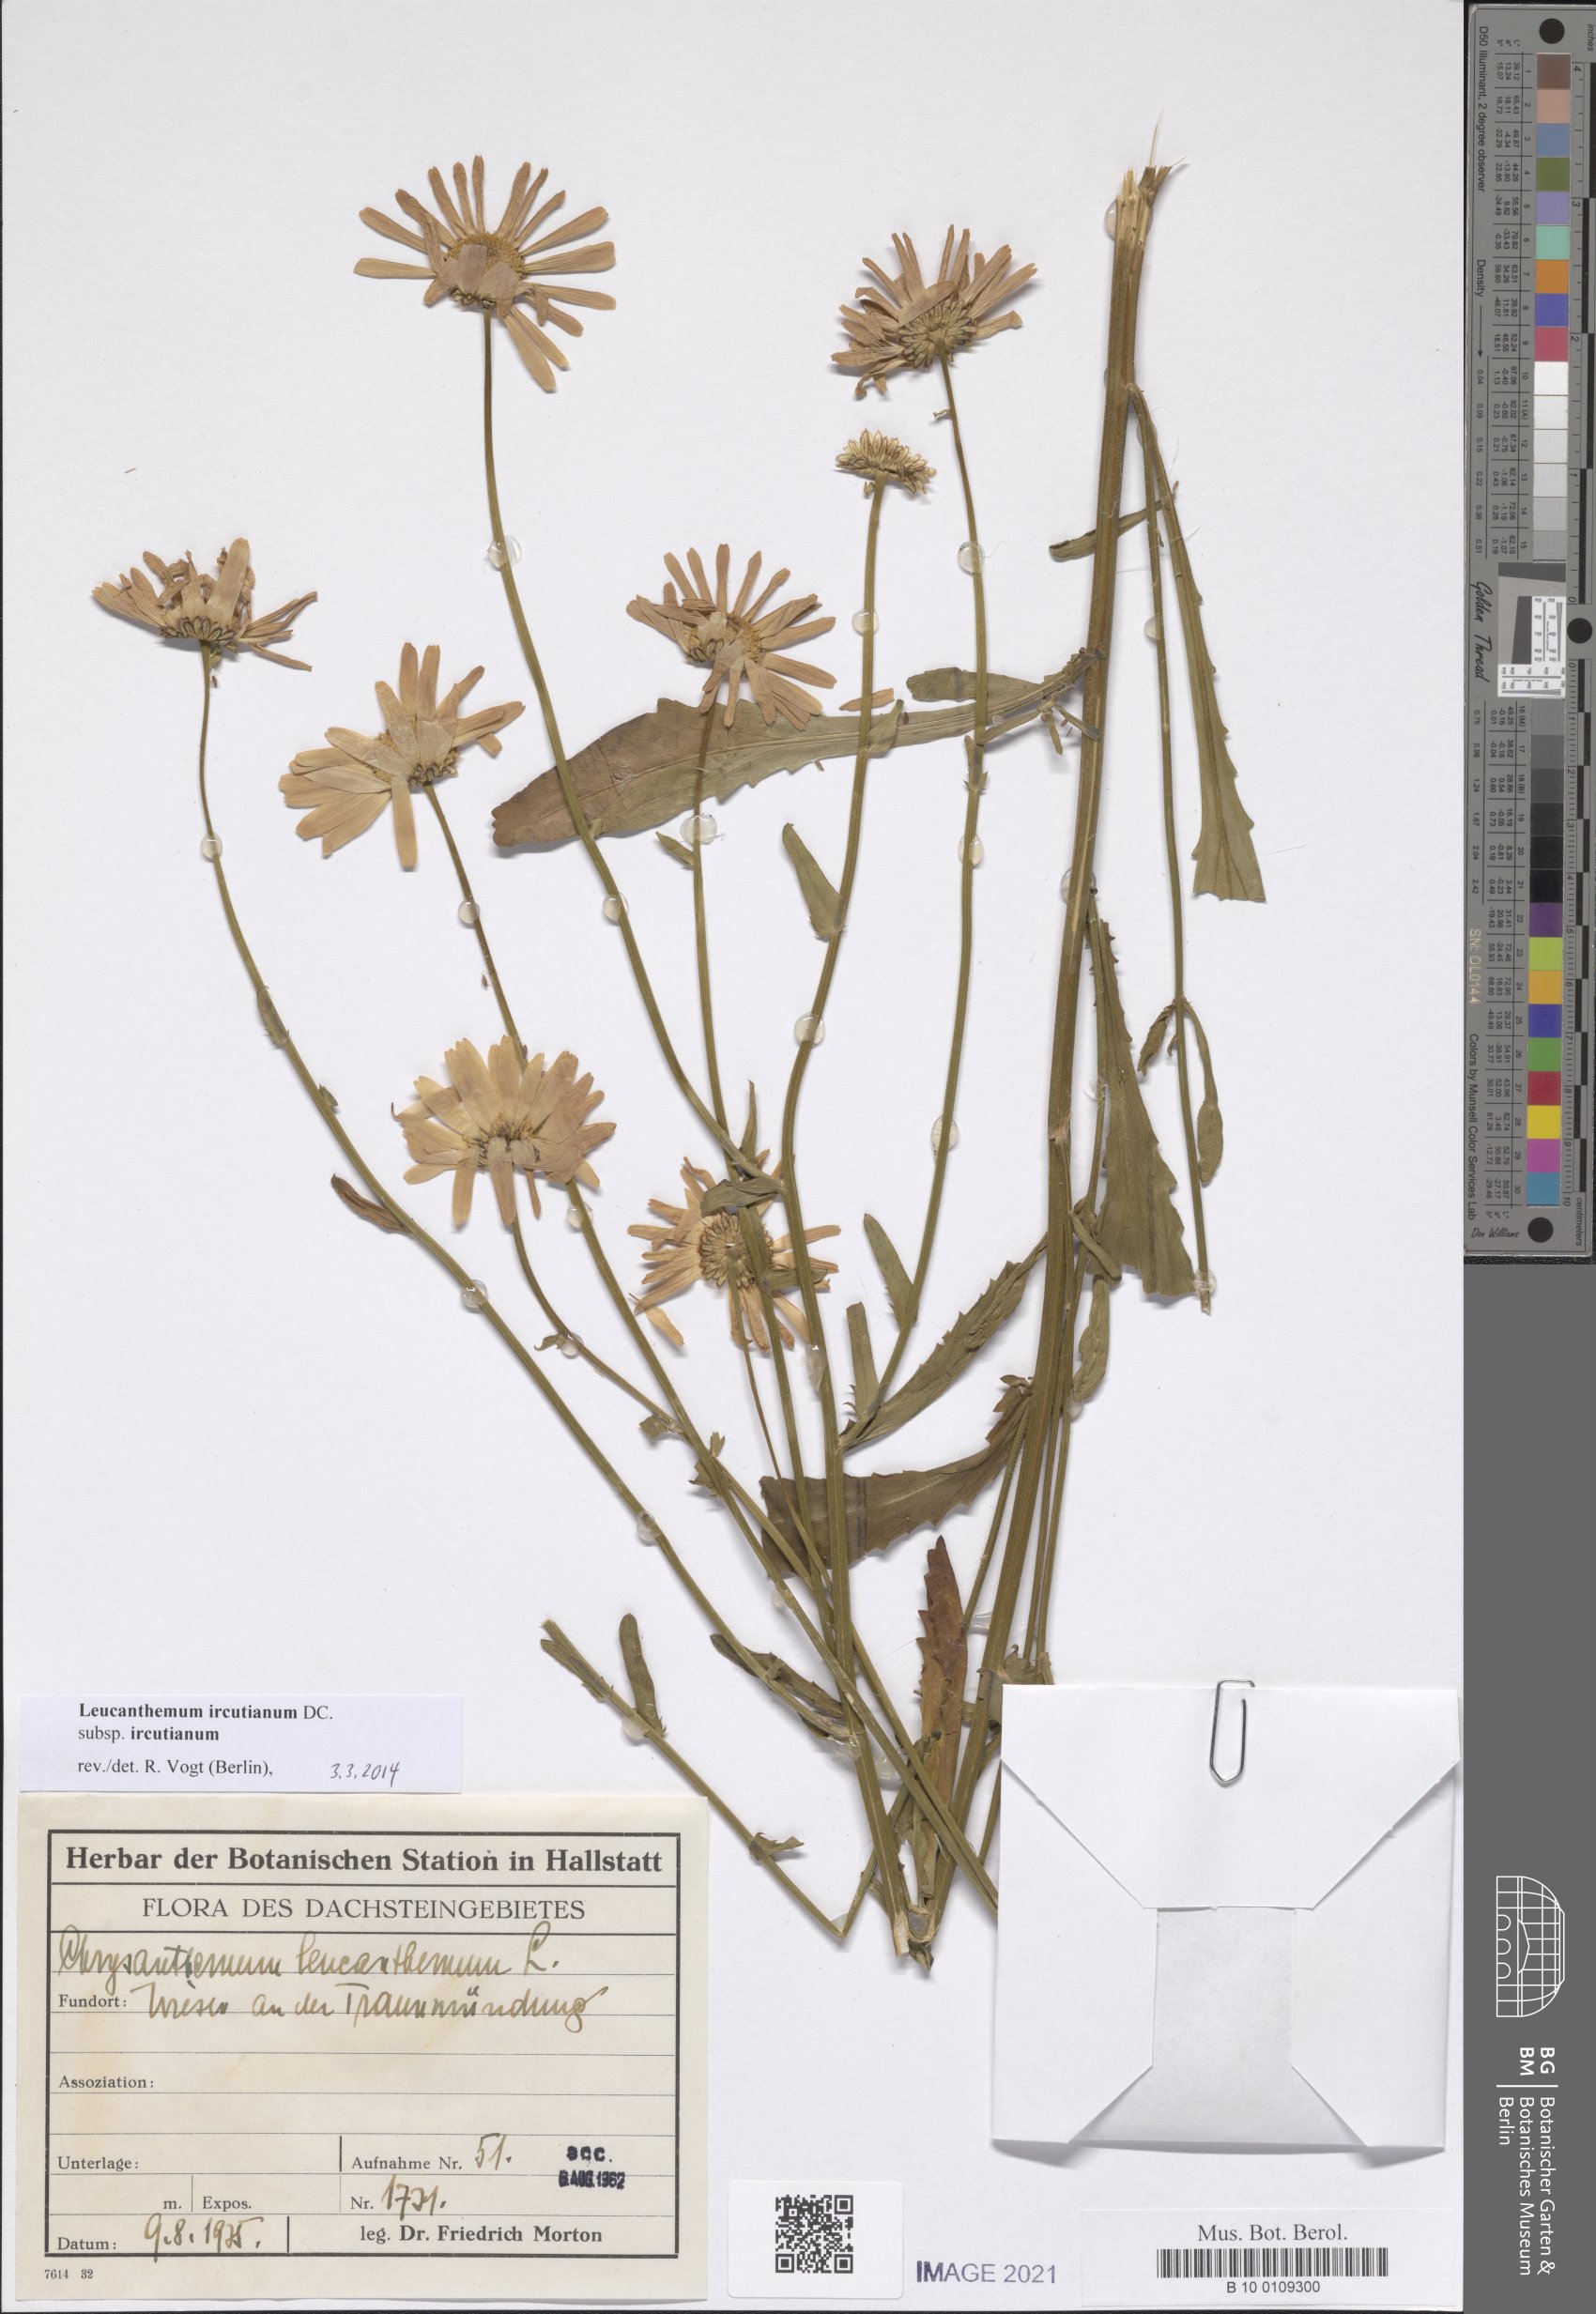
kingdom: Plantae
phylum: Tracheophyta
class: Magnoliopsida
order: Asterales
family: Asteraceae
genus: Leucanthemum
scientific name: Leucanthemum ircutianum
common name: Daisy
